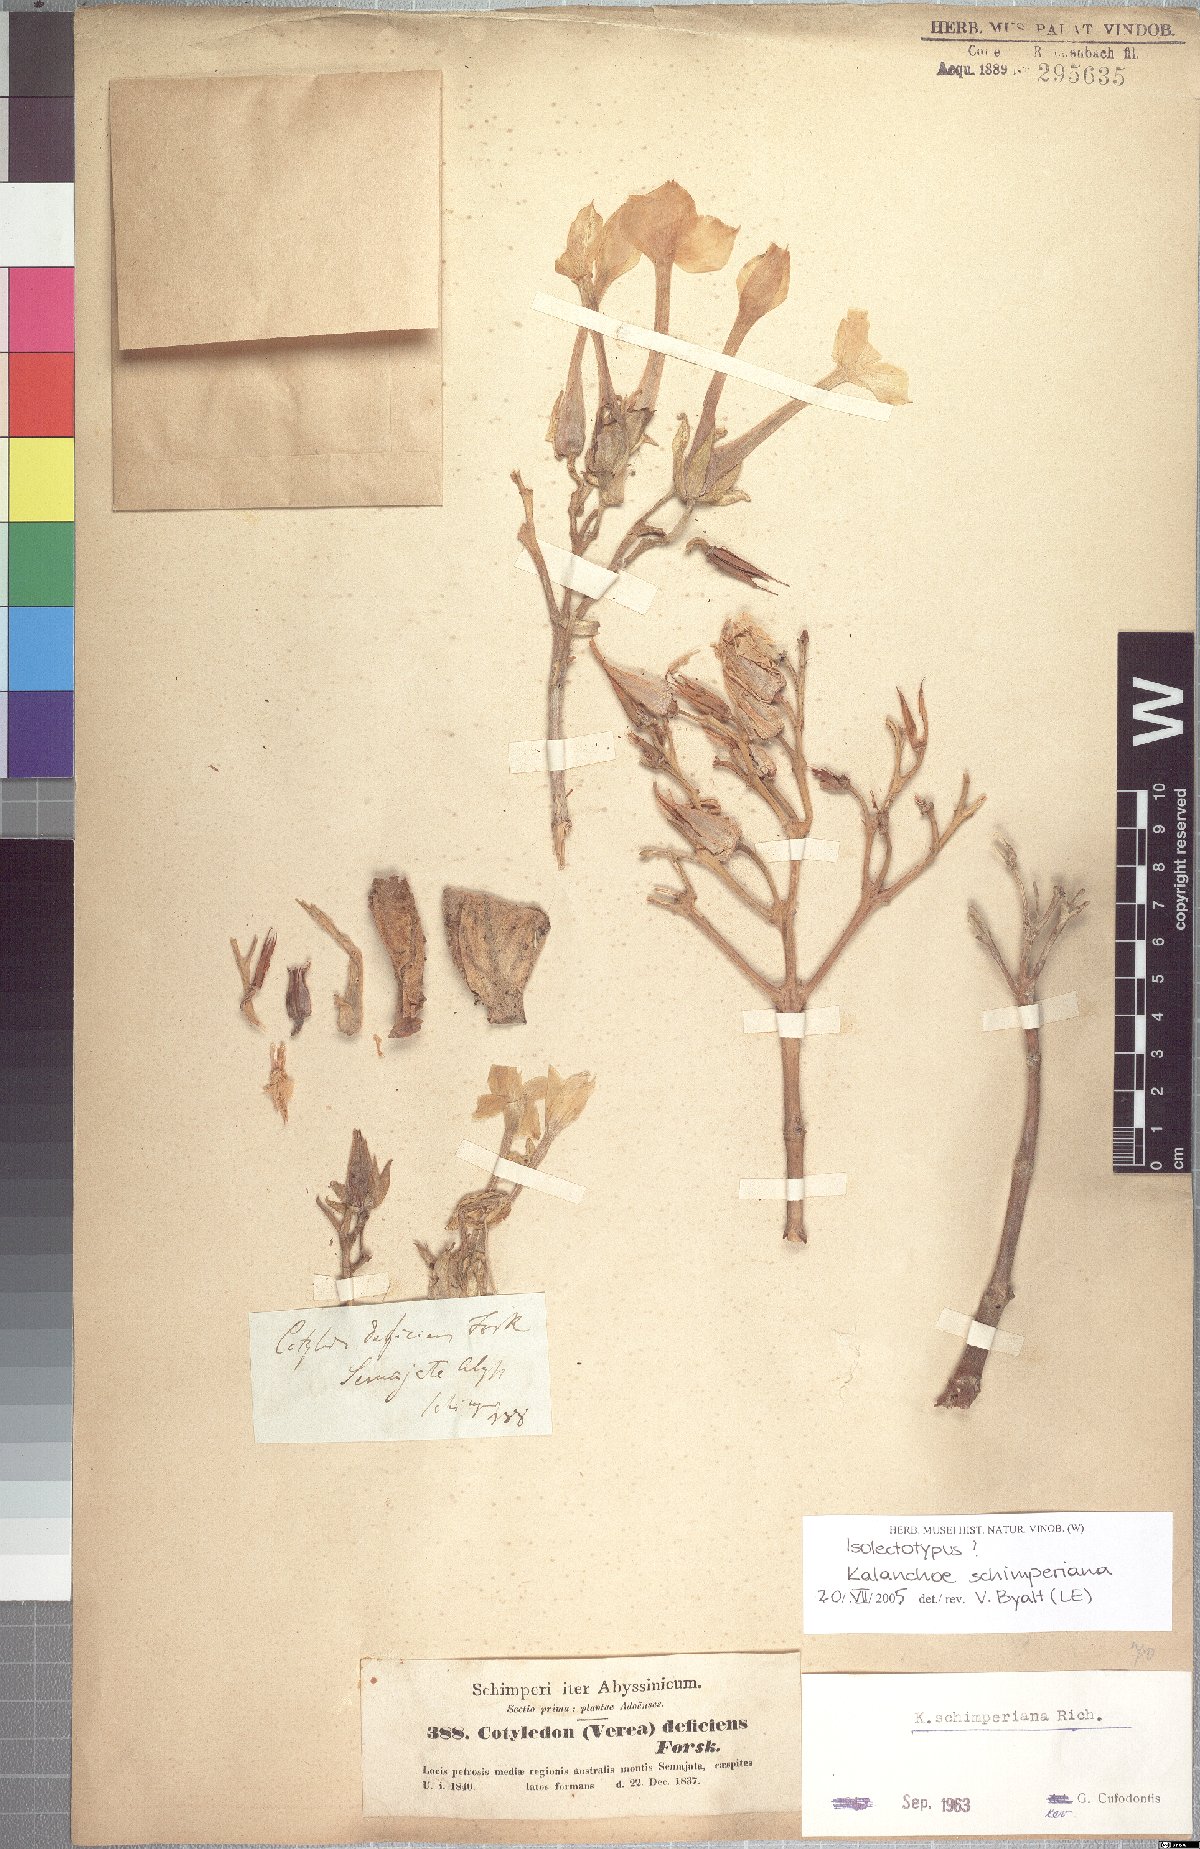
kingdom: Plantae
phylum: Tracheophyta
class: Magnoliopsida
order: Saxifragales
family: Crassulaceae
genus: Kalanchoe
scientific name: Kalanchoe schimperiana
